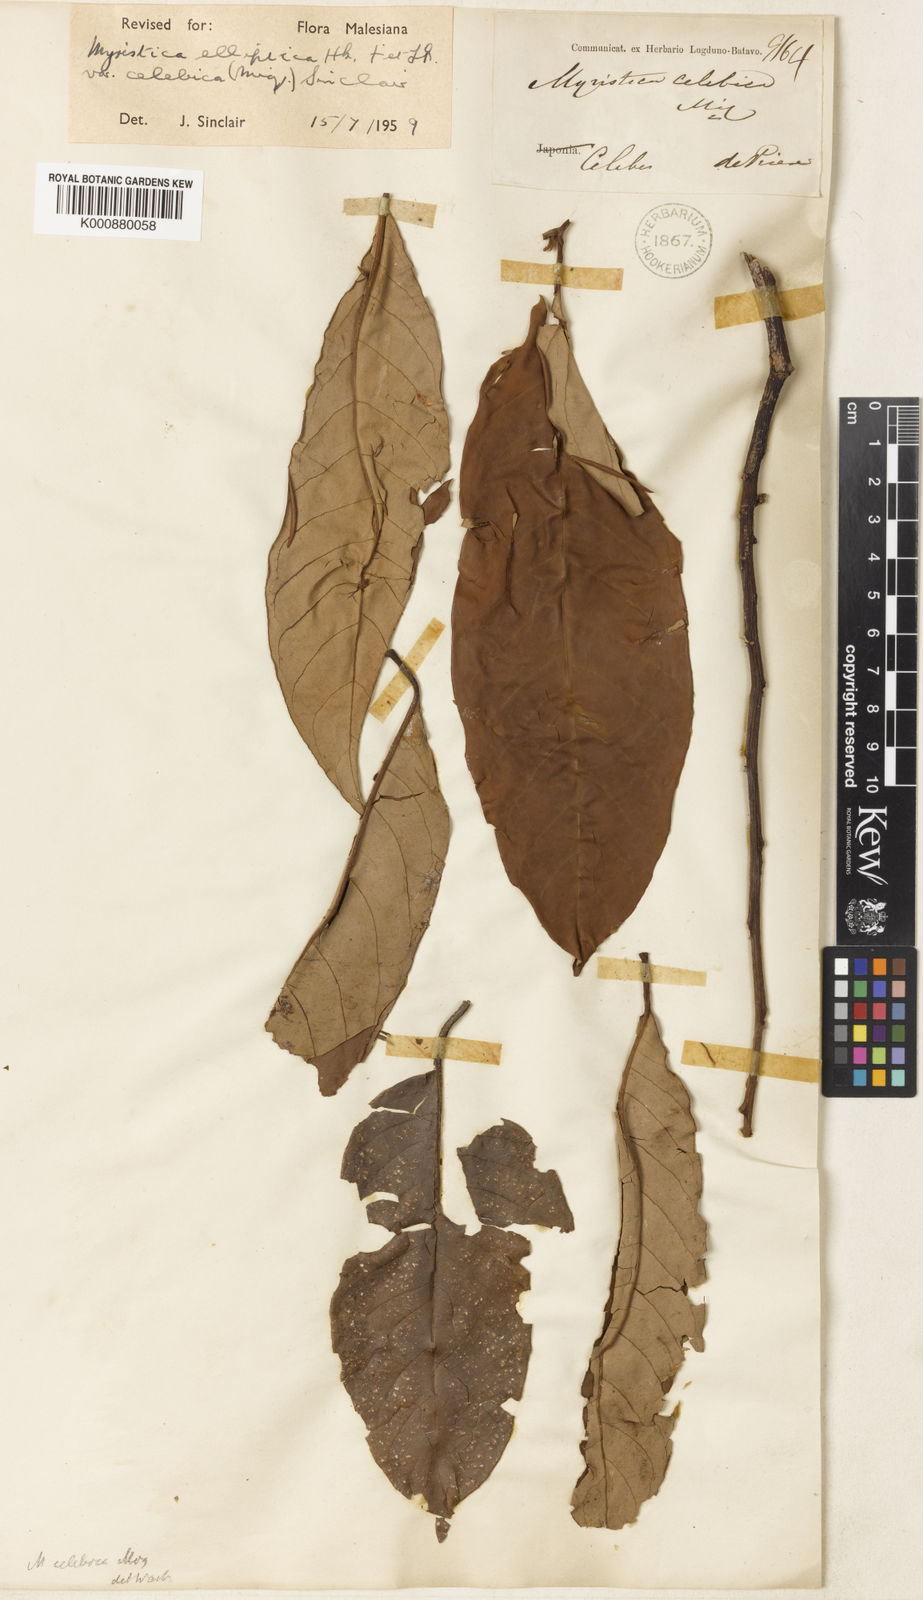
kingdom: Plantae
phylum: Tracheophyta
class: Magnoliopsida
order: Magnoliales
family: Myristicaceae
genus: Myristica
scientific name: Myristica elliptica
